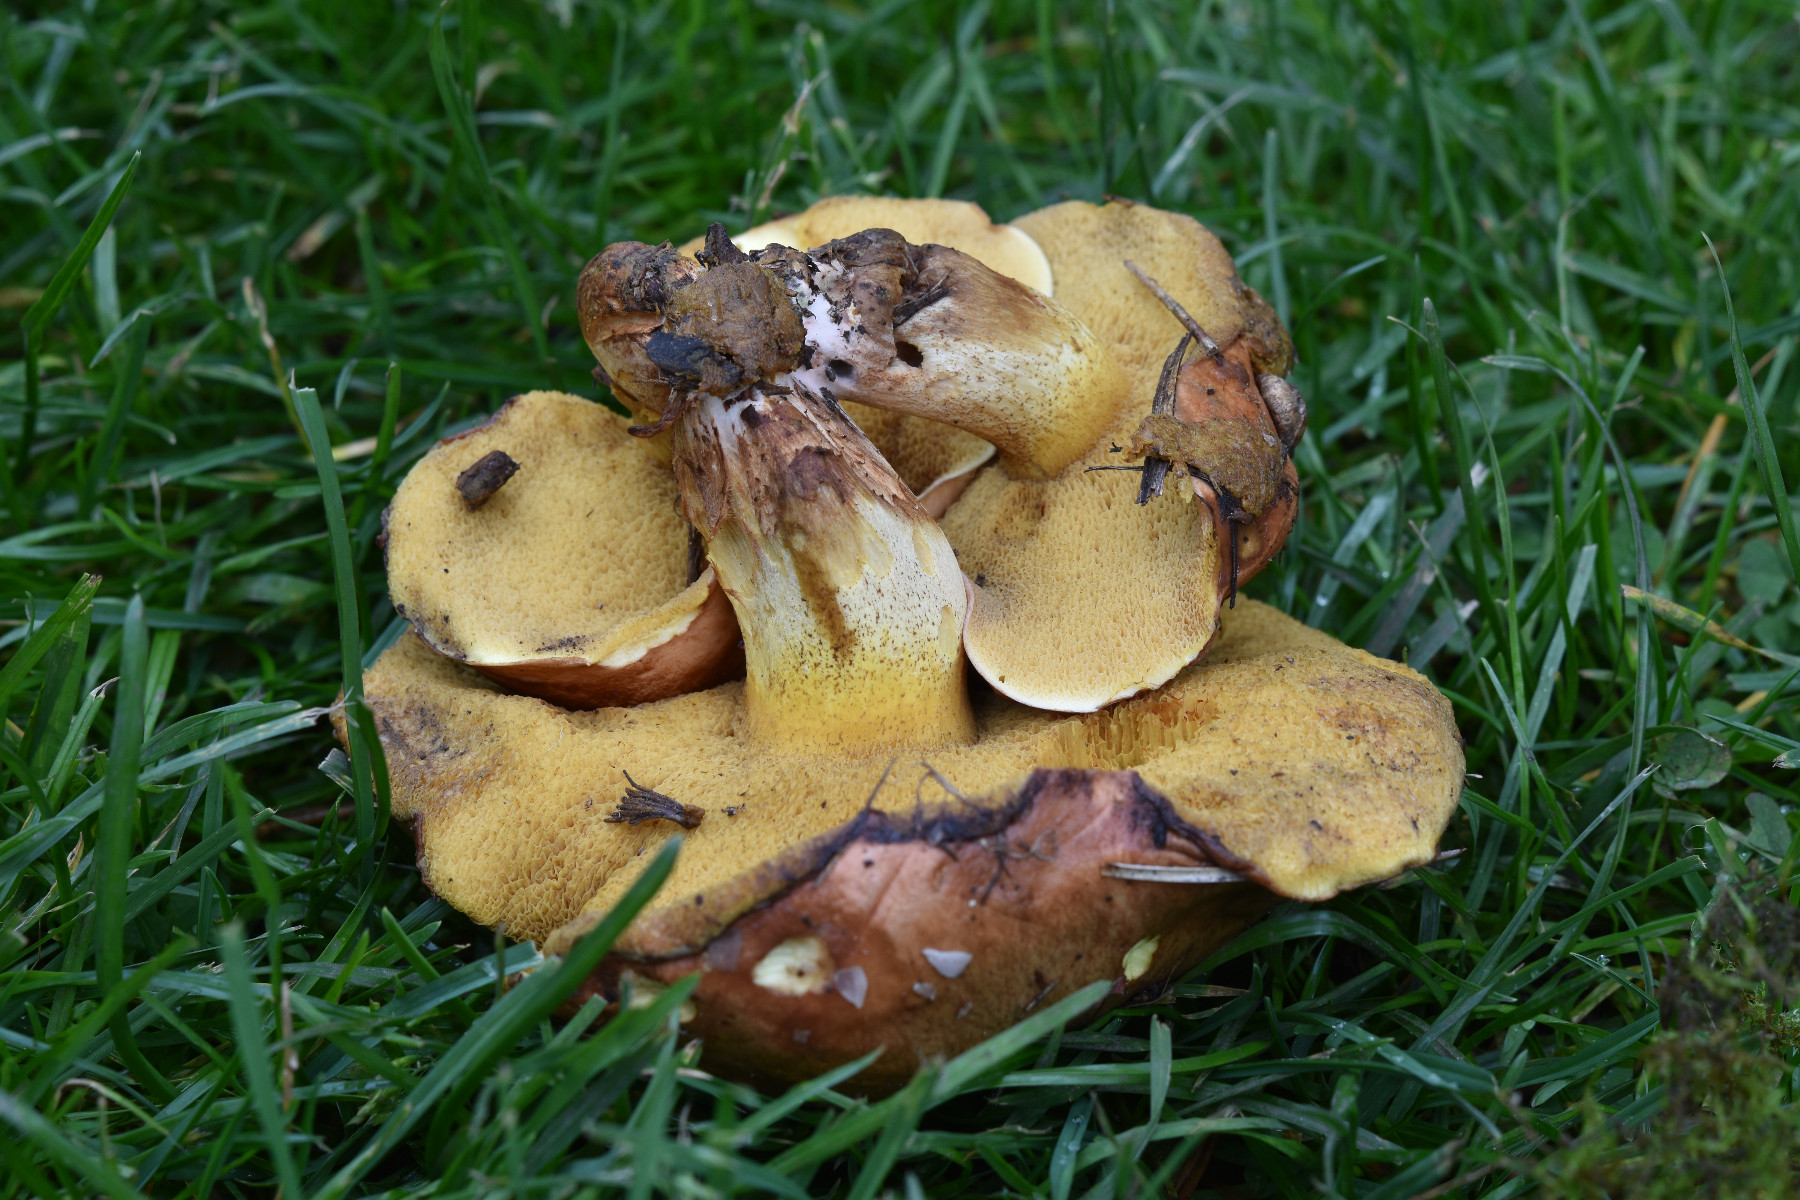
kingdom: Fungi
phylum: Basidiomycota
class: Agaricomycetes
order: Boletales
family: Suillaceae
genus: Suillus
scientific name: Suillus granulatus
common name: kornet slimrørhat
